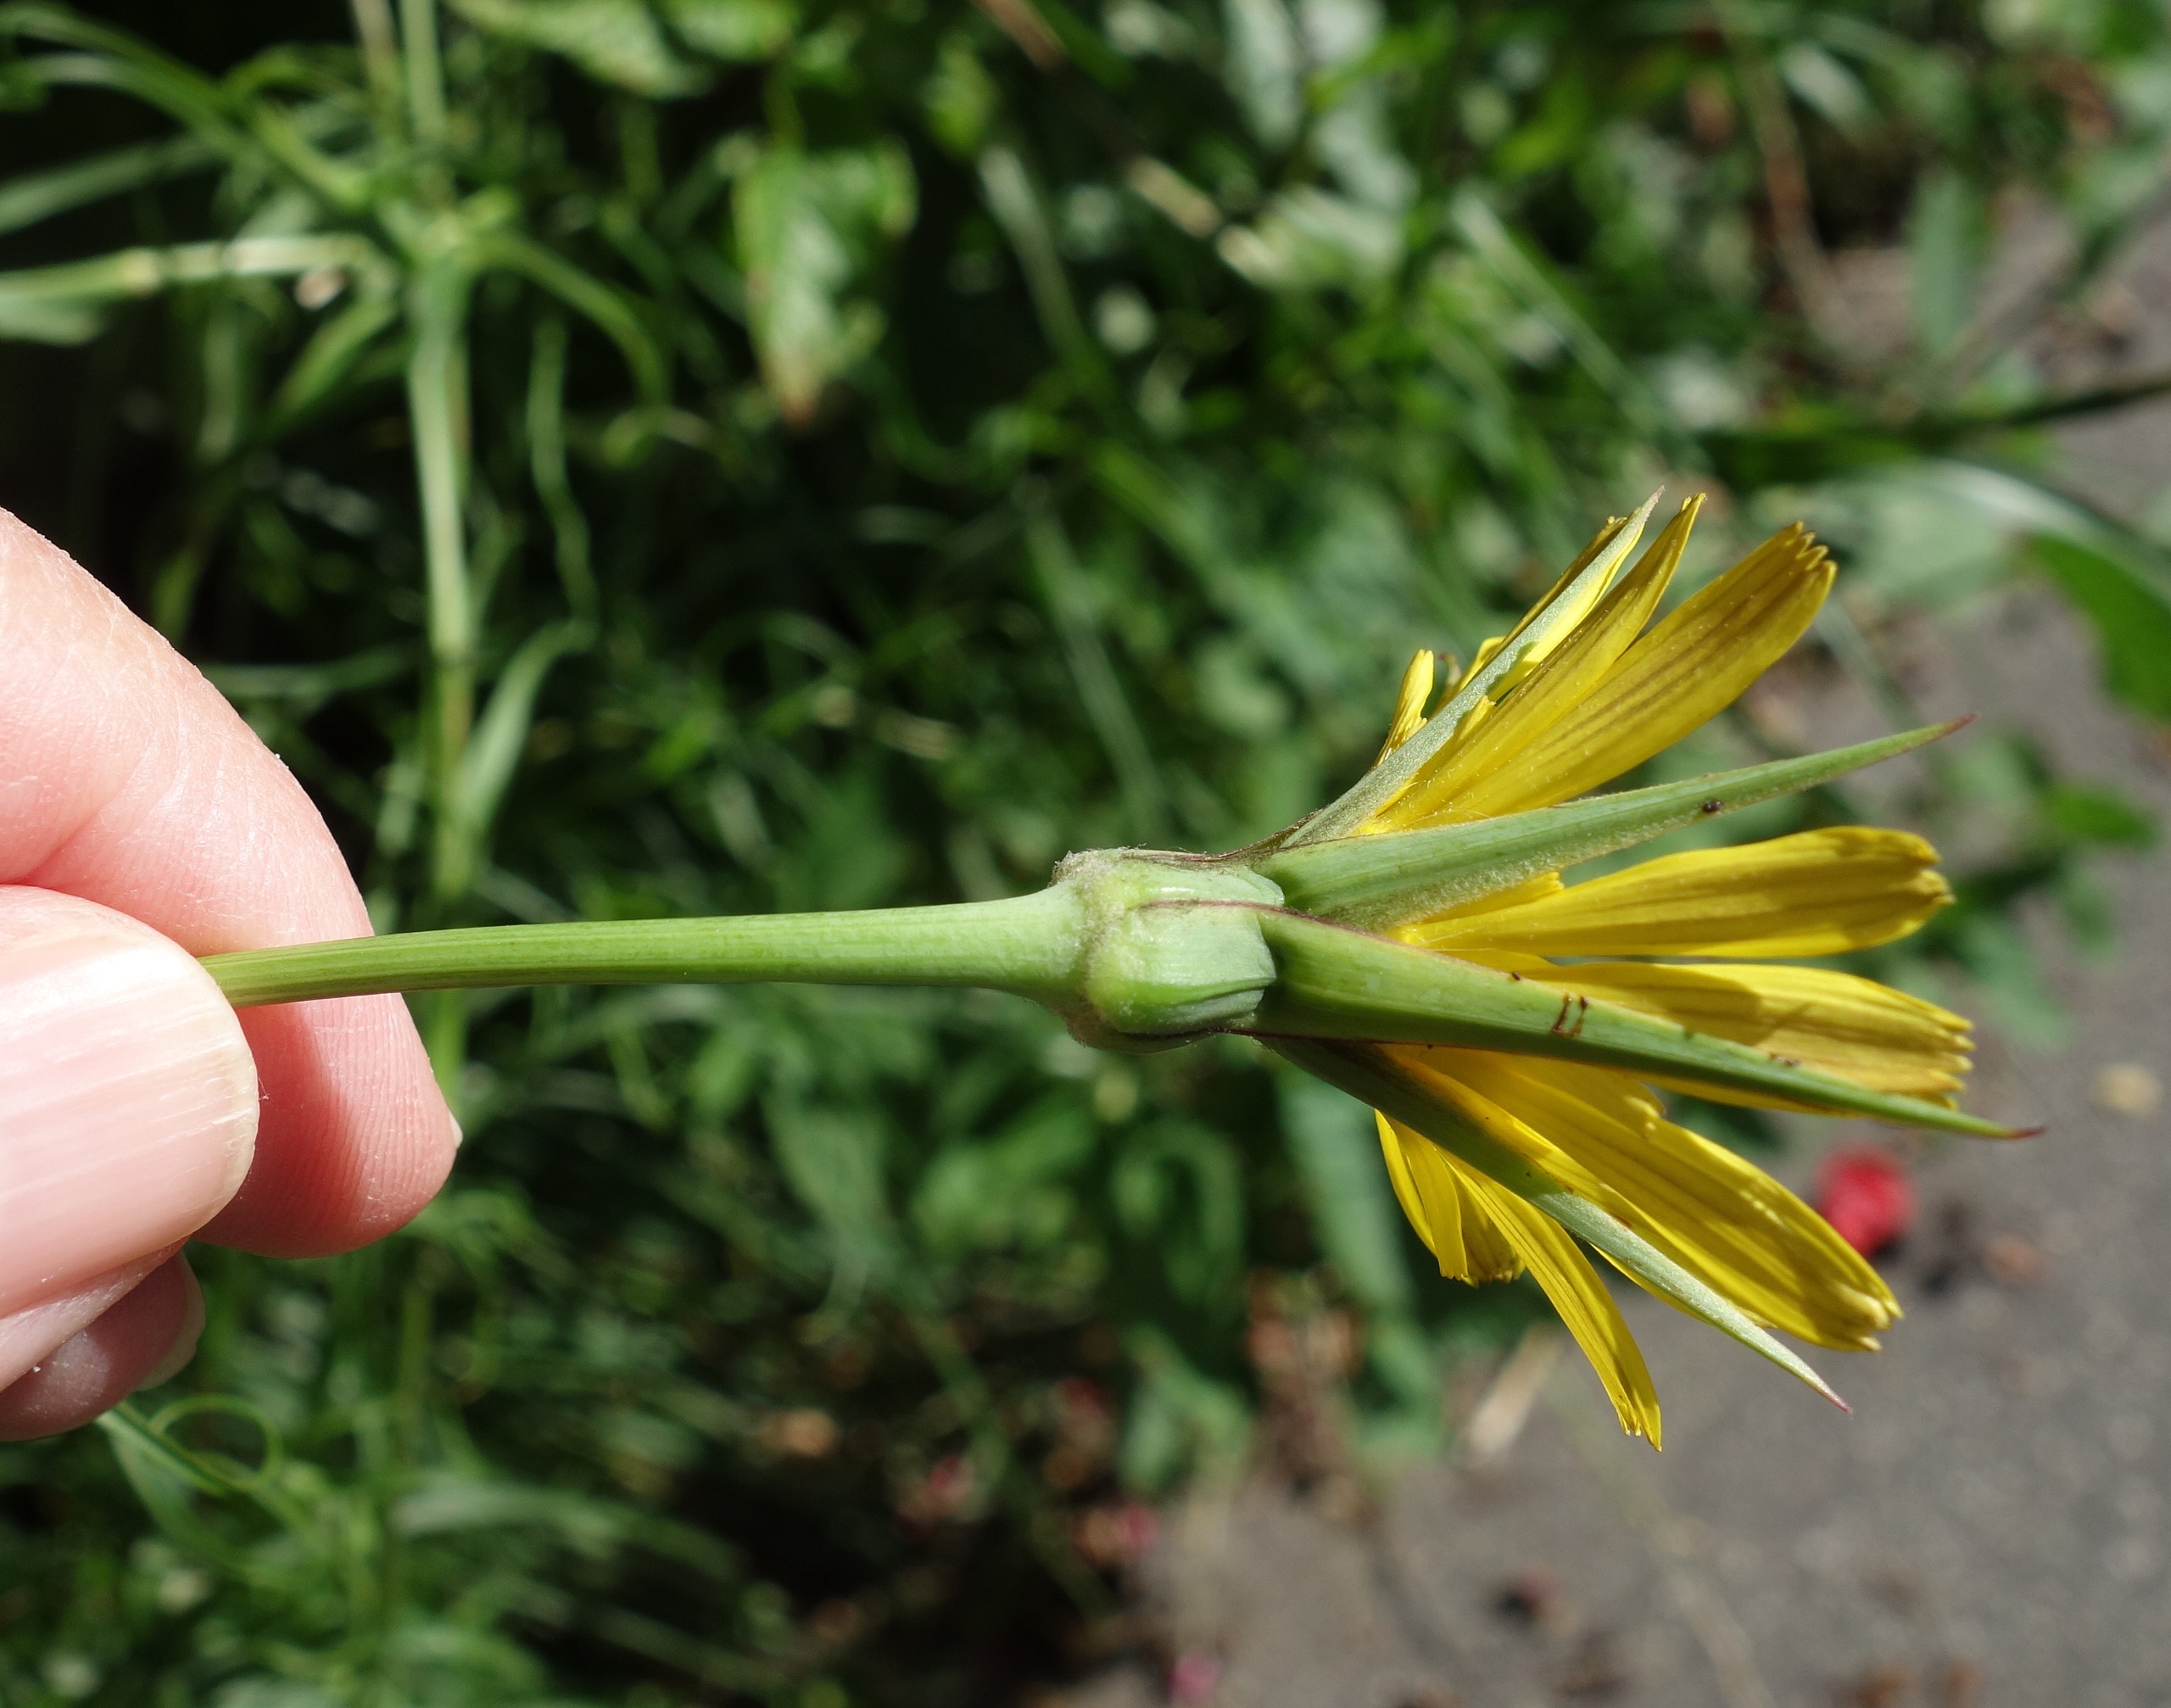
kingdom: Plantae
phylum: Tracheophyta
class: Magnoliopsida
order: Asterales
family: Asteraceae
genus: Tragopogon
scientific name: Tragopogon pratensis
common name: Eng-gedeskæg
